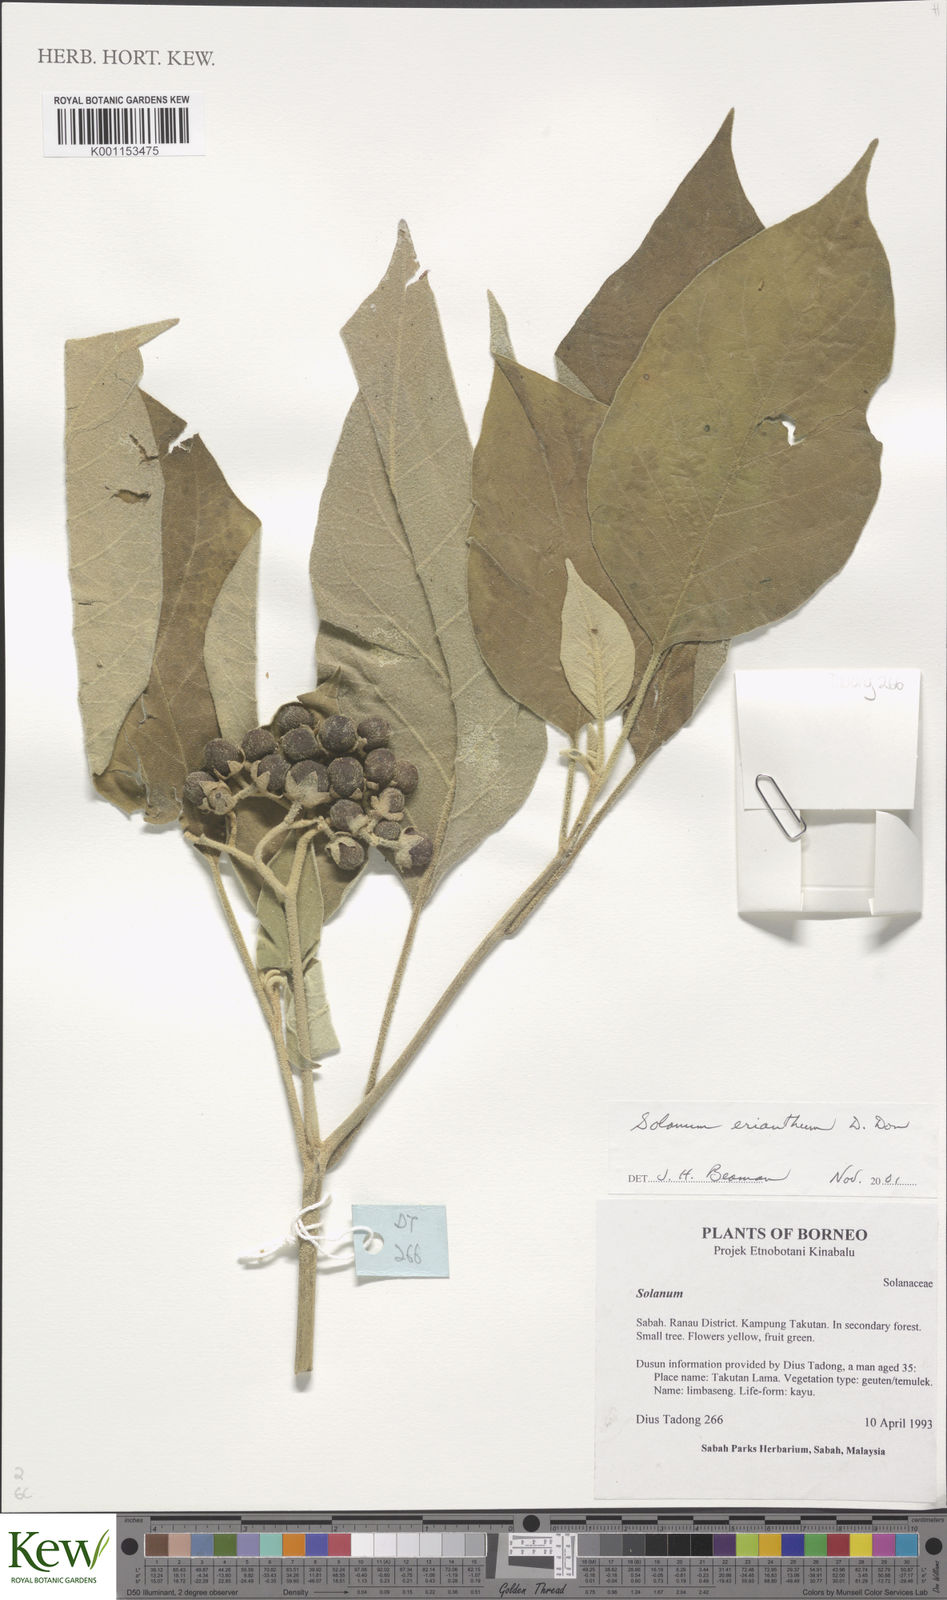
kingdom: Plantae
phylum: Tracheophyta
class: Magnoliopsida
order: Solanales
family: Solanaceae
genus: Solanum
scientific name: Solanum erianthum
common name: Tobacco-tree
